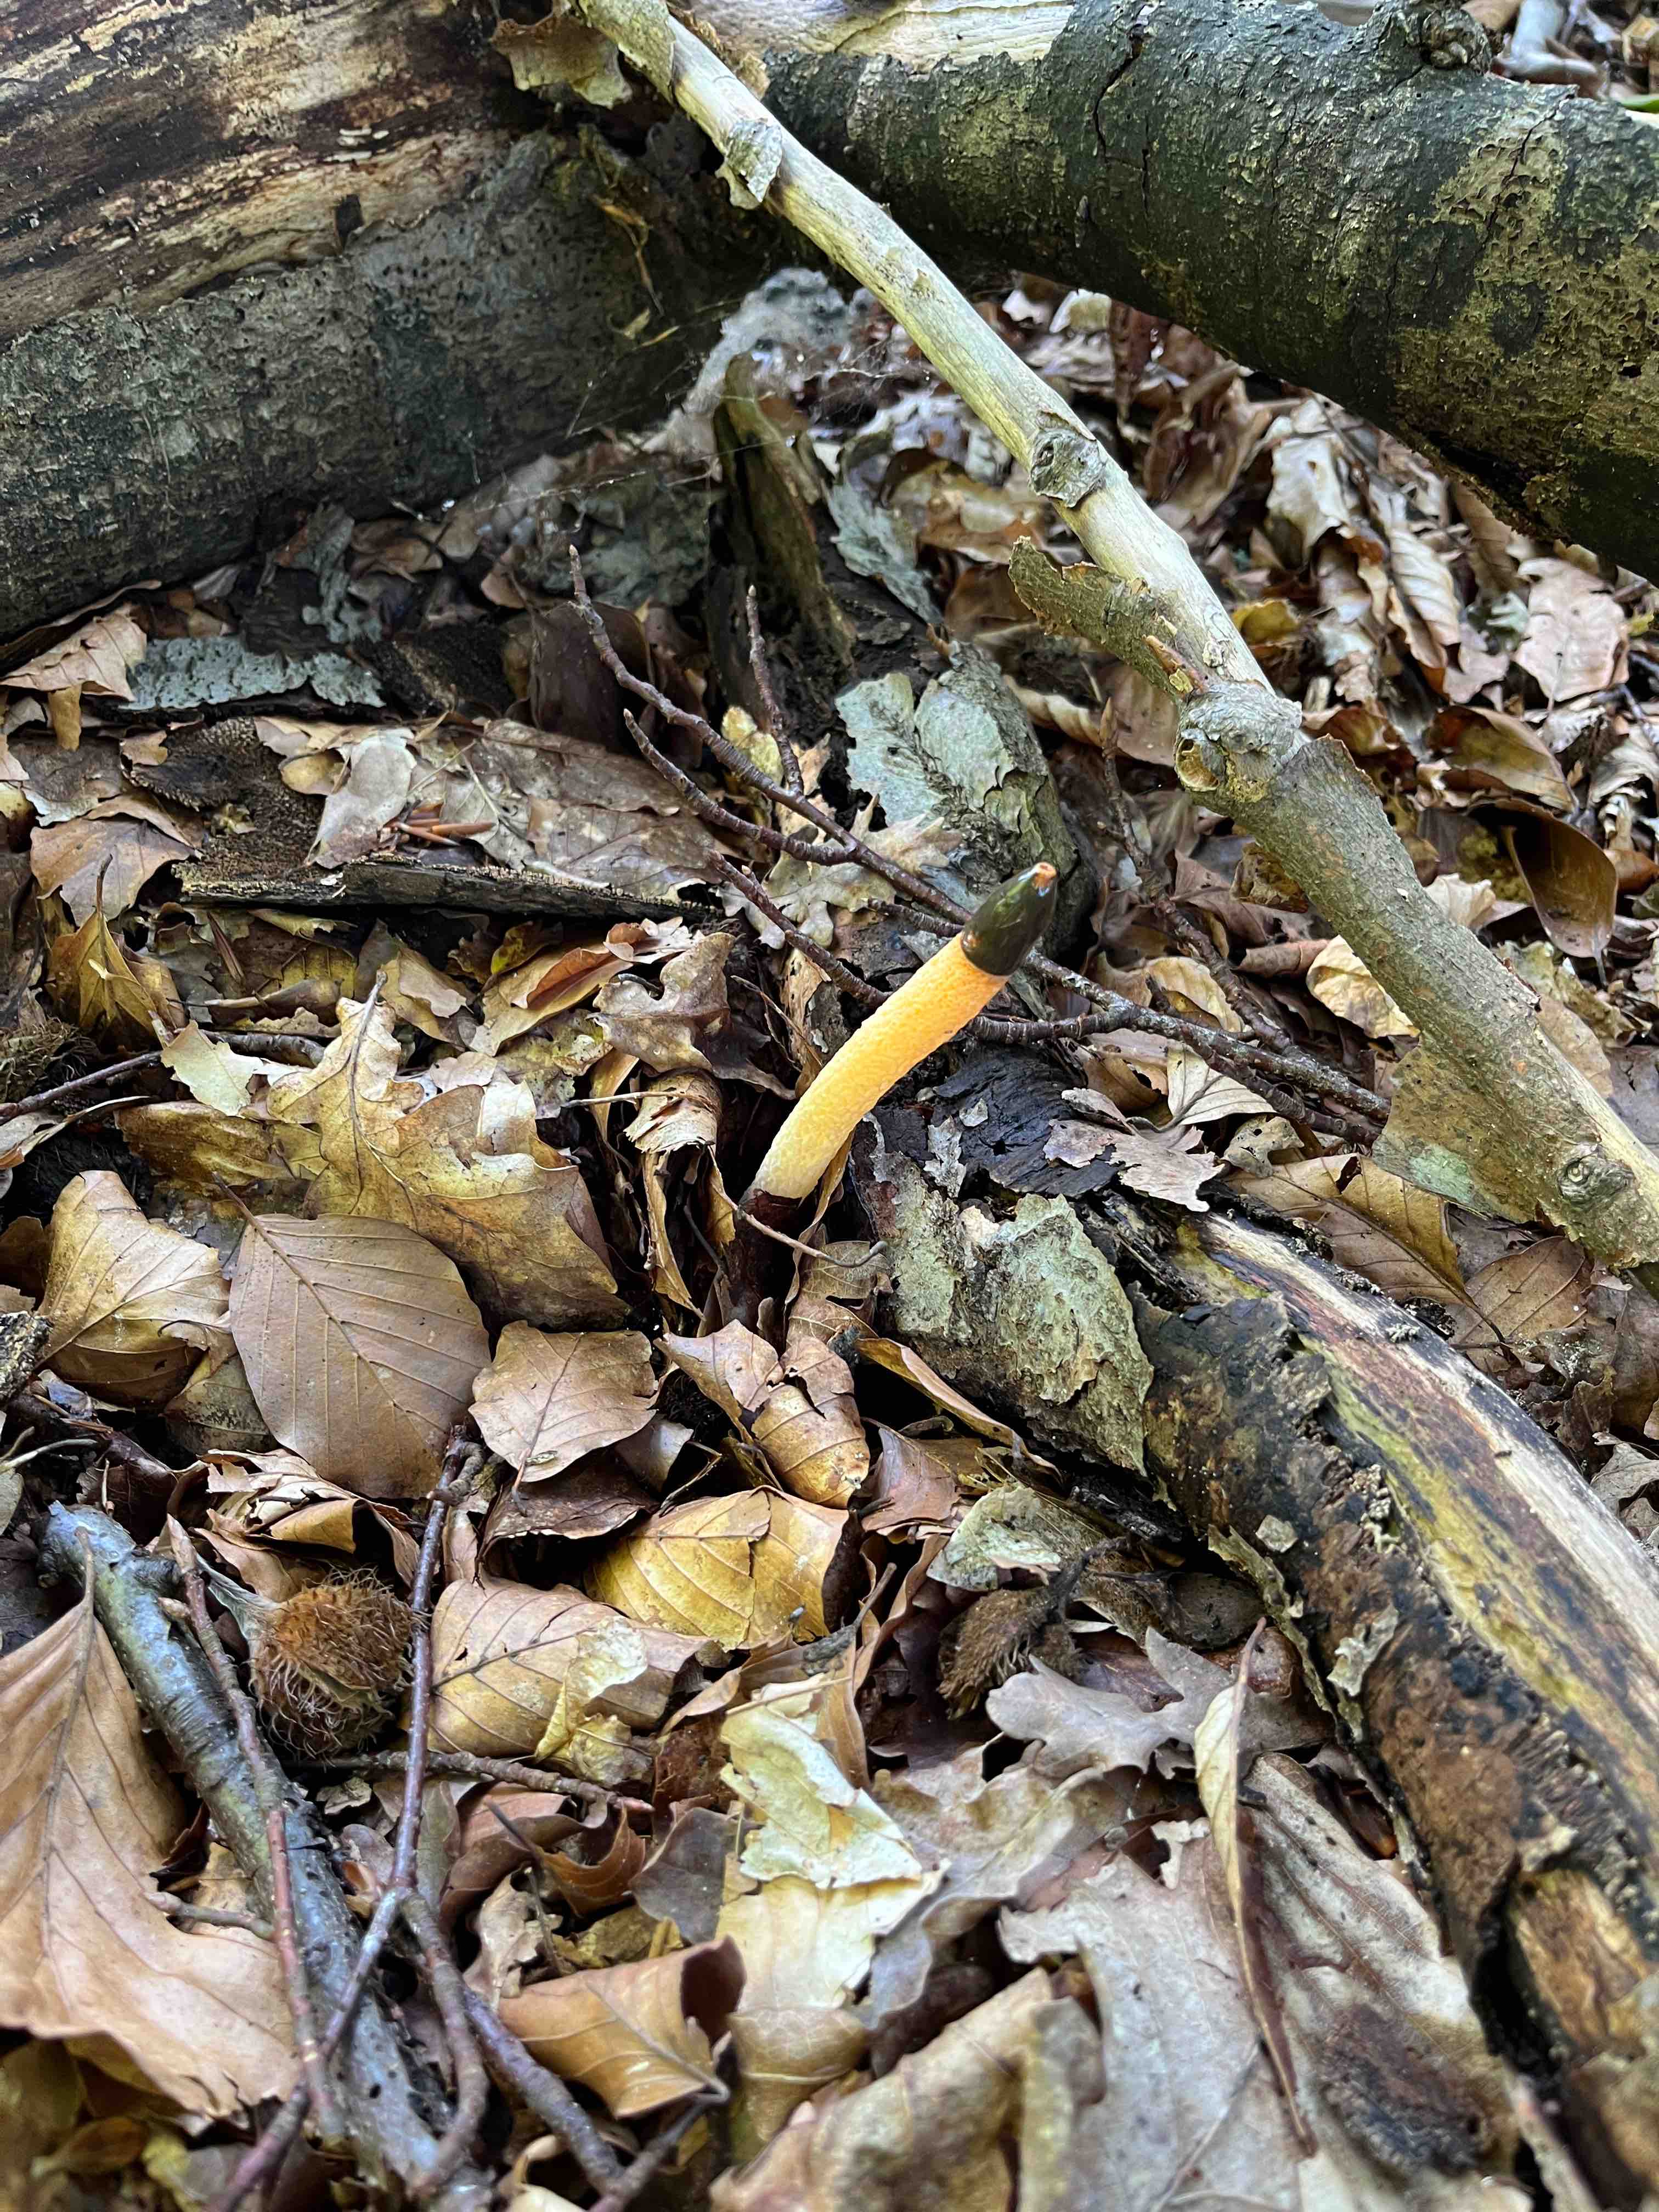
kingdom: Fungi
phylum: Basidiomycota
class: Agaricomycetes
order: Phallales
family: Phallaceae
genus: Mutinus
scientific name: Mutinus caninus
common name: hunde-stinksvamp
